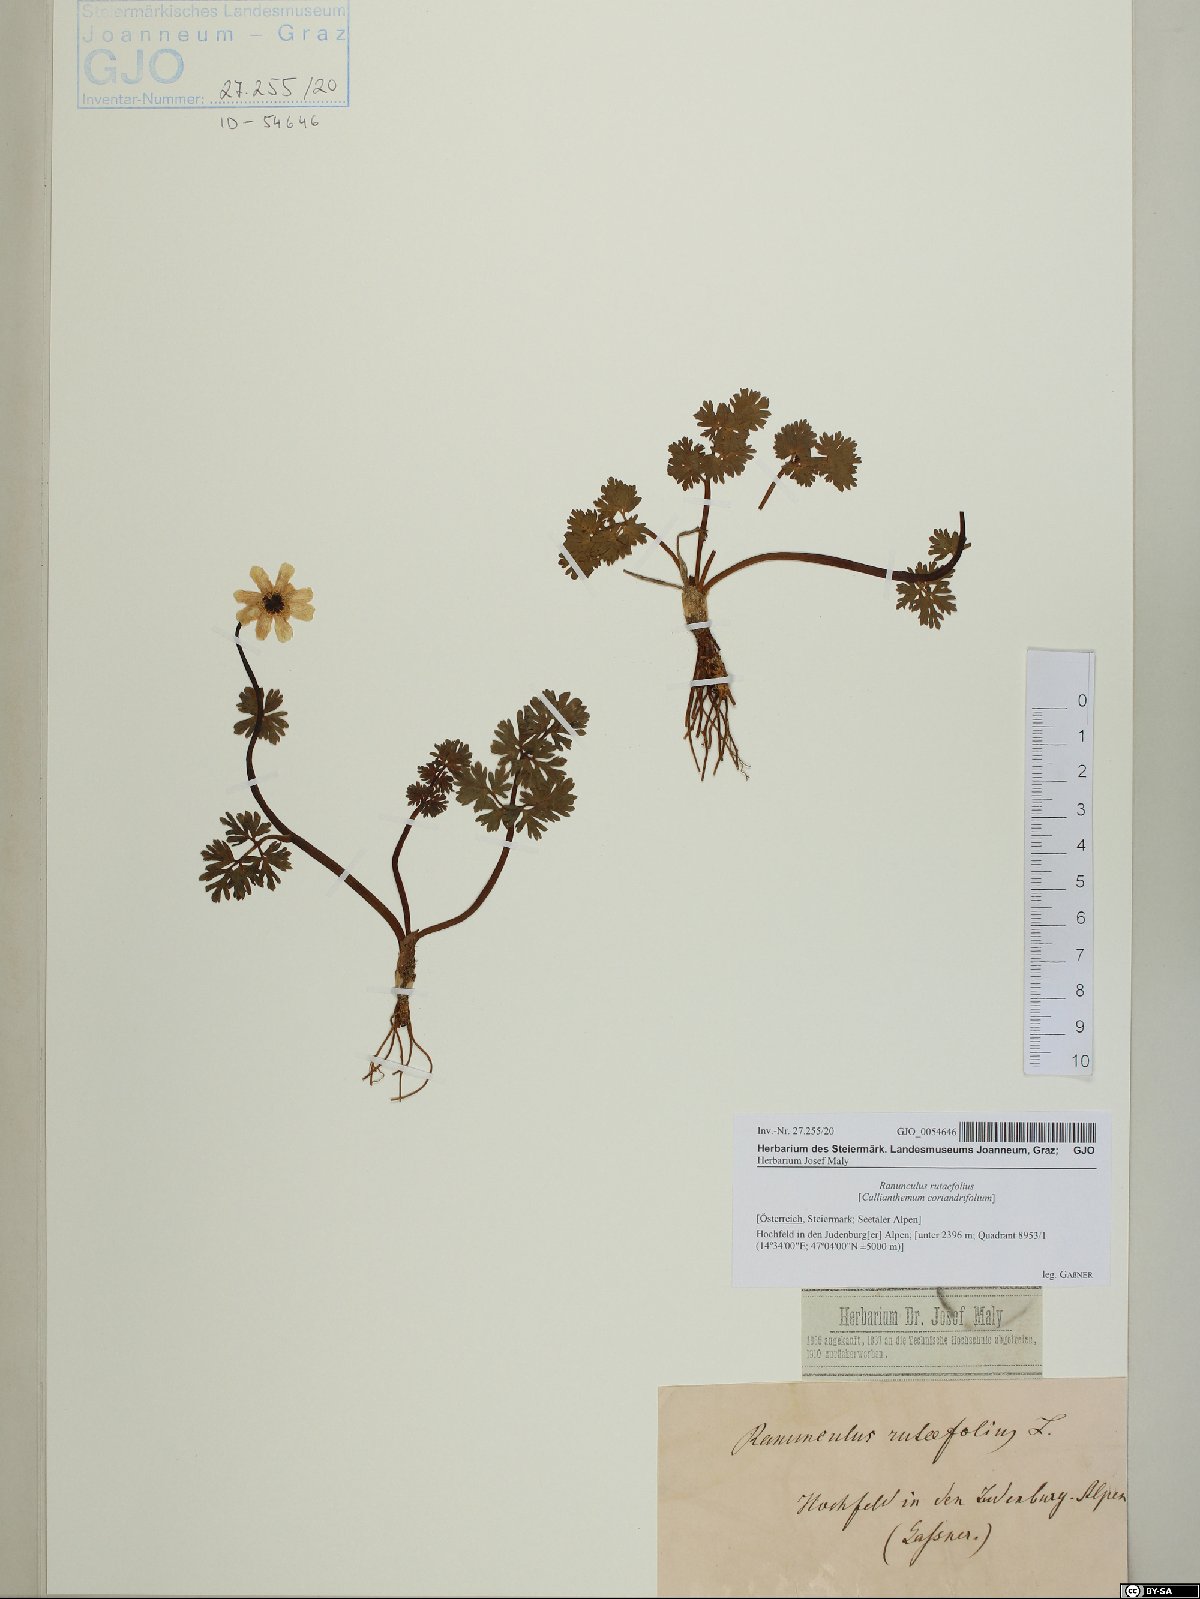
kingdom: Plantae
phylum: Tracheophyta
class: Magnoliopsida
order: Ranunculales
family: Ranunculaceae
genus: Callianthemum
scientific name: Callianthemum anemonoides
